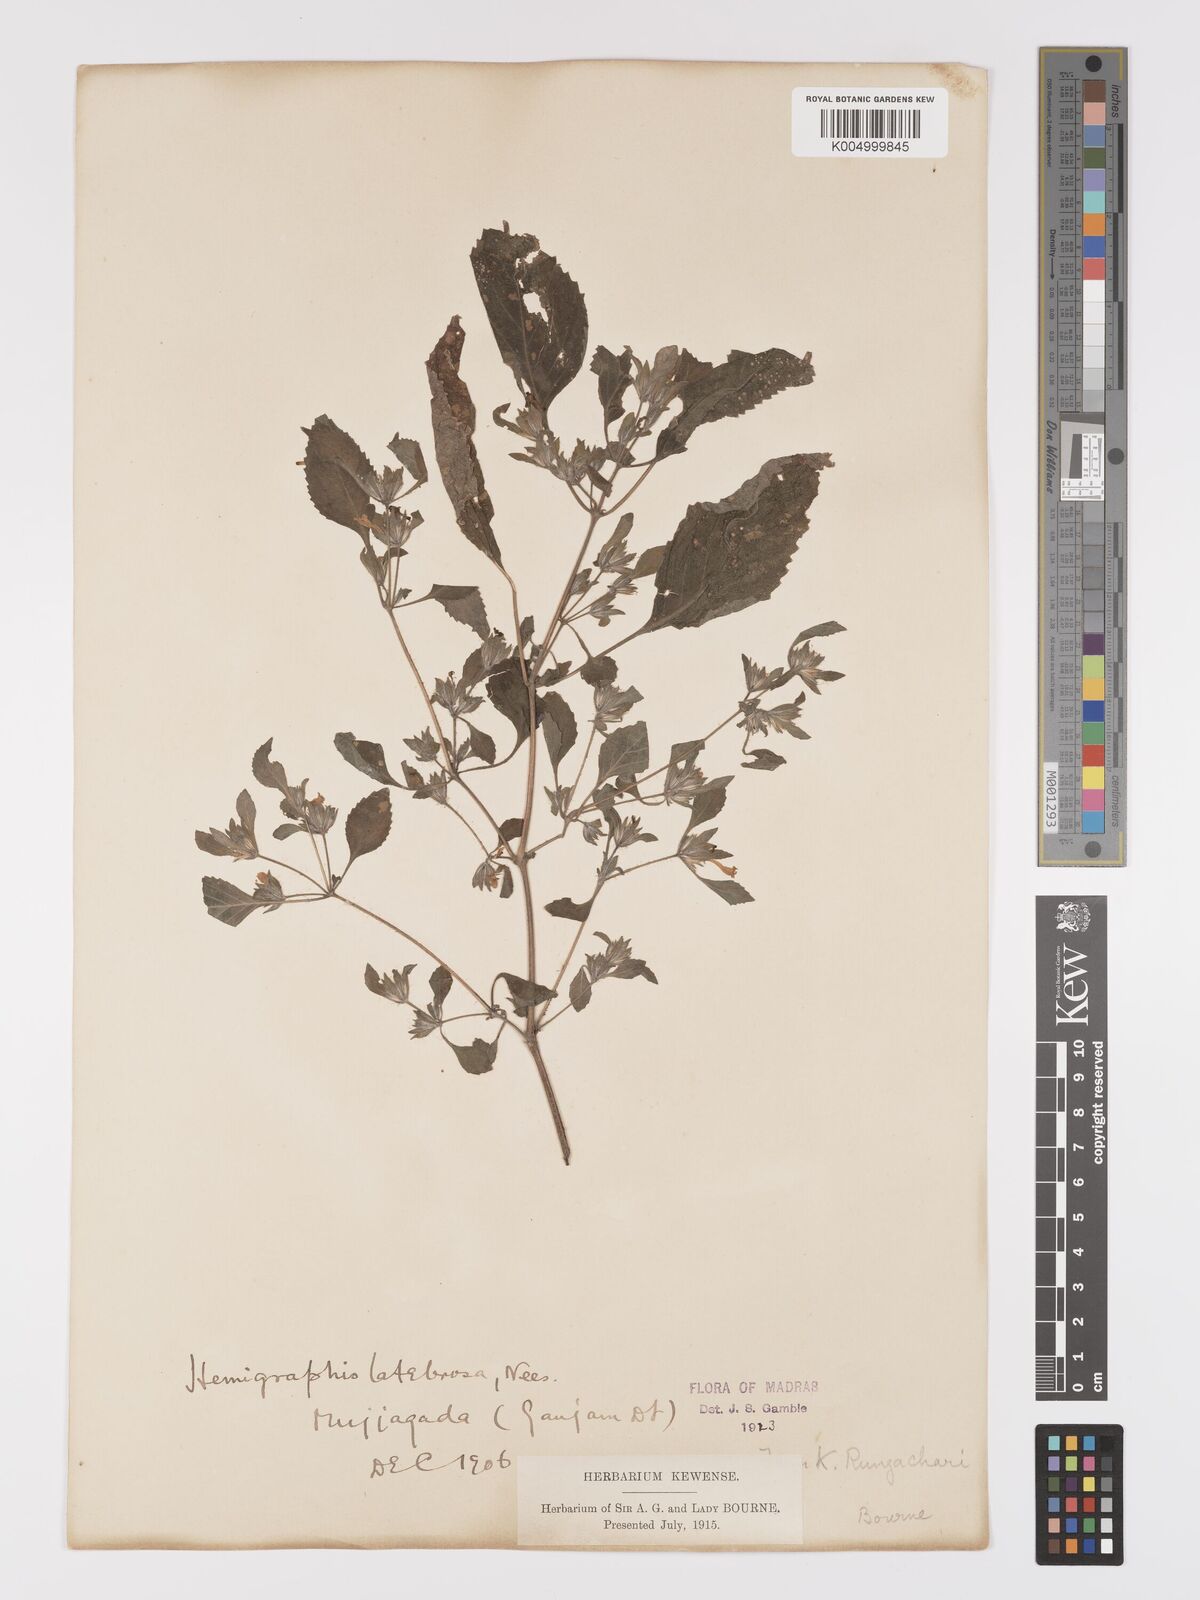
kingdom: Plantae
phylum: Tracheophyta
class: Magnoliopsida
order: Lamiales
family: Acanthaceae
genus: Strobilanthes
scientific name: Strobilanthes pavala
